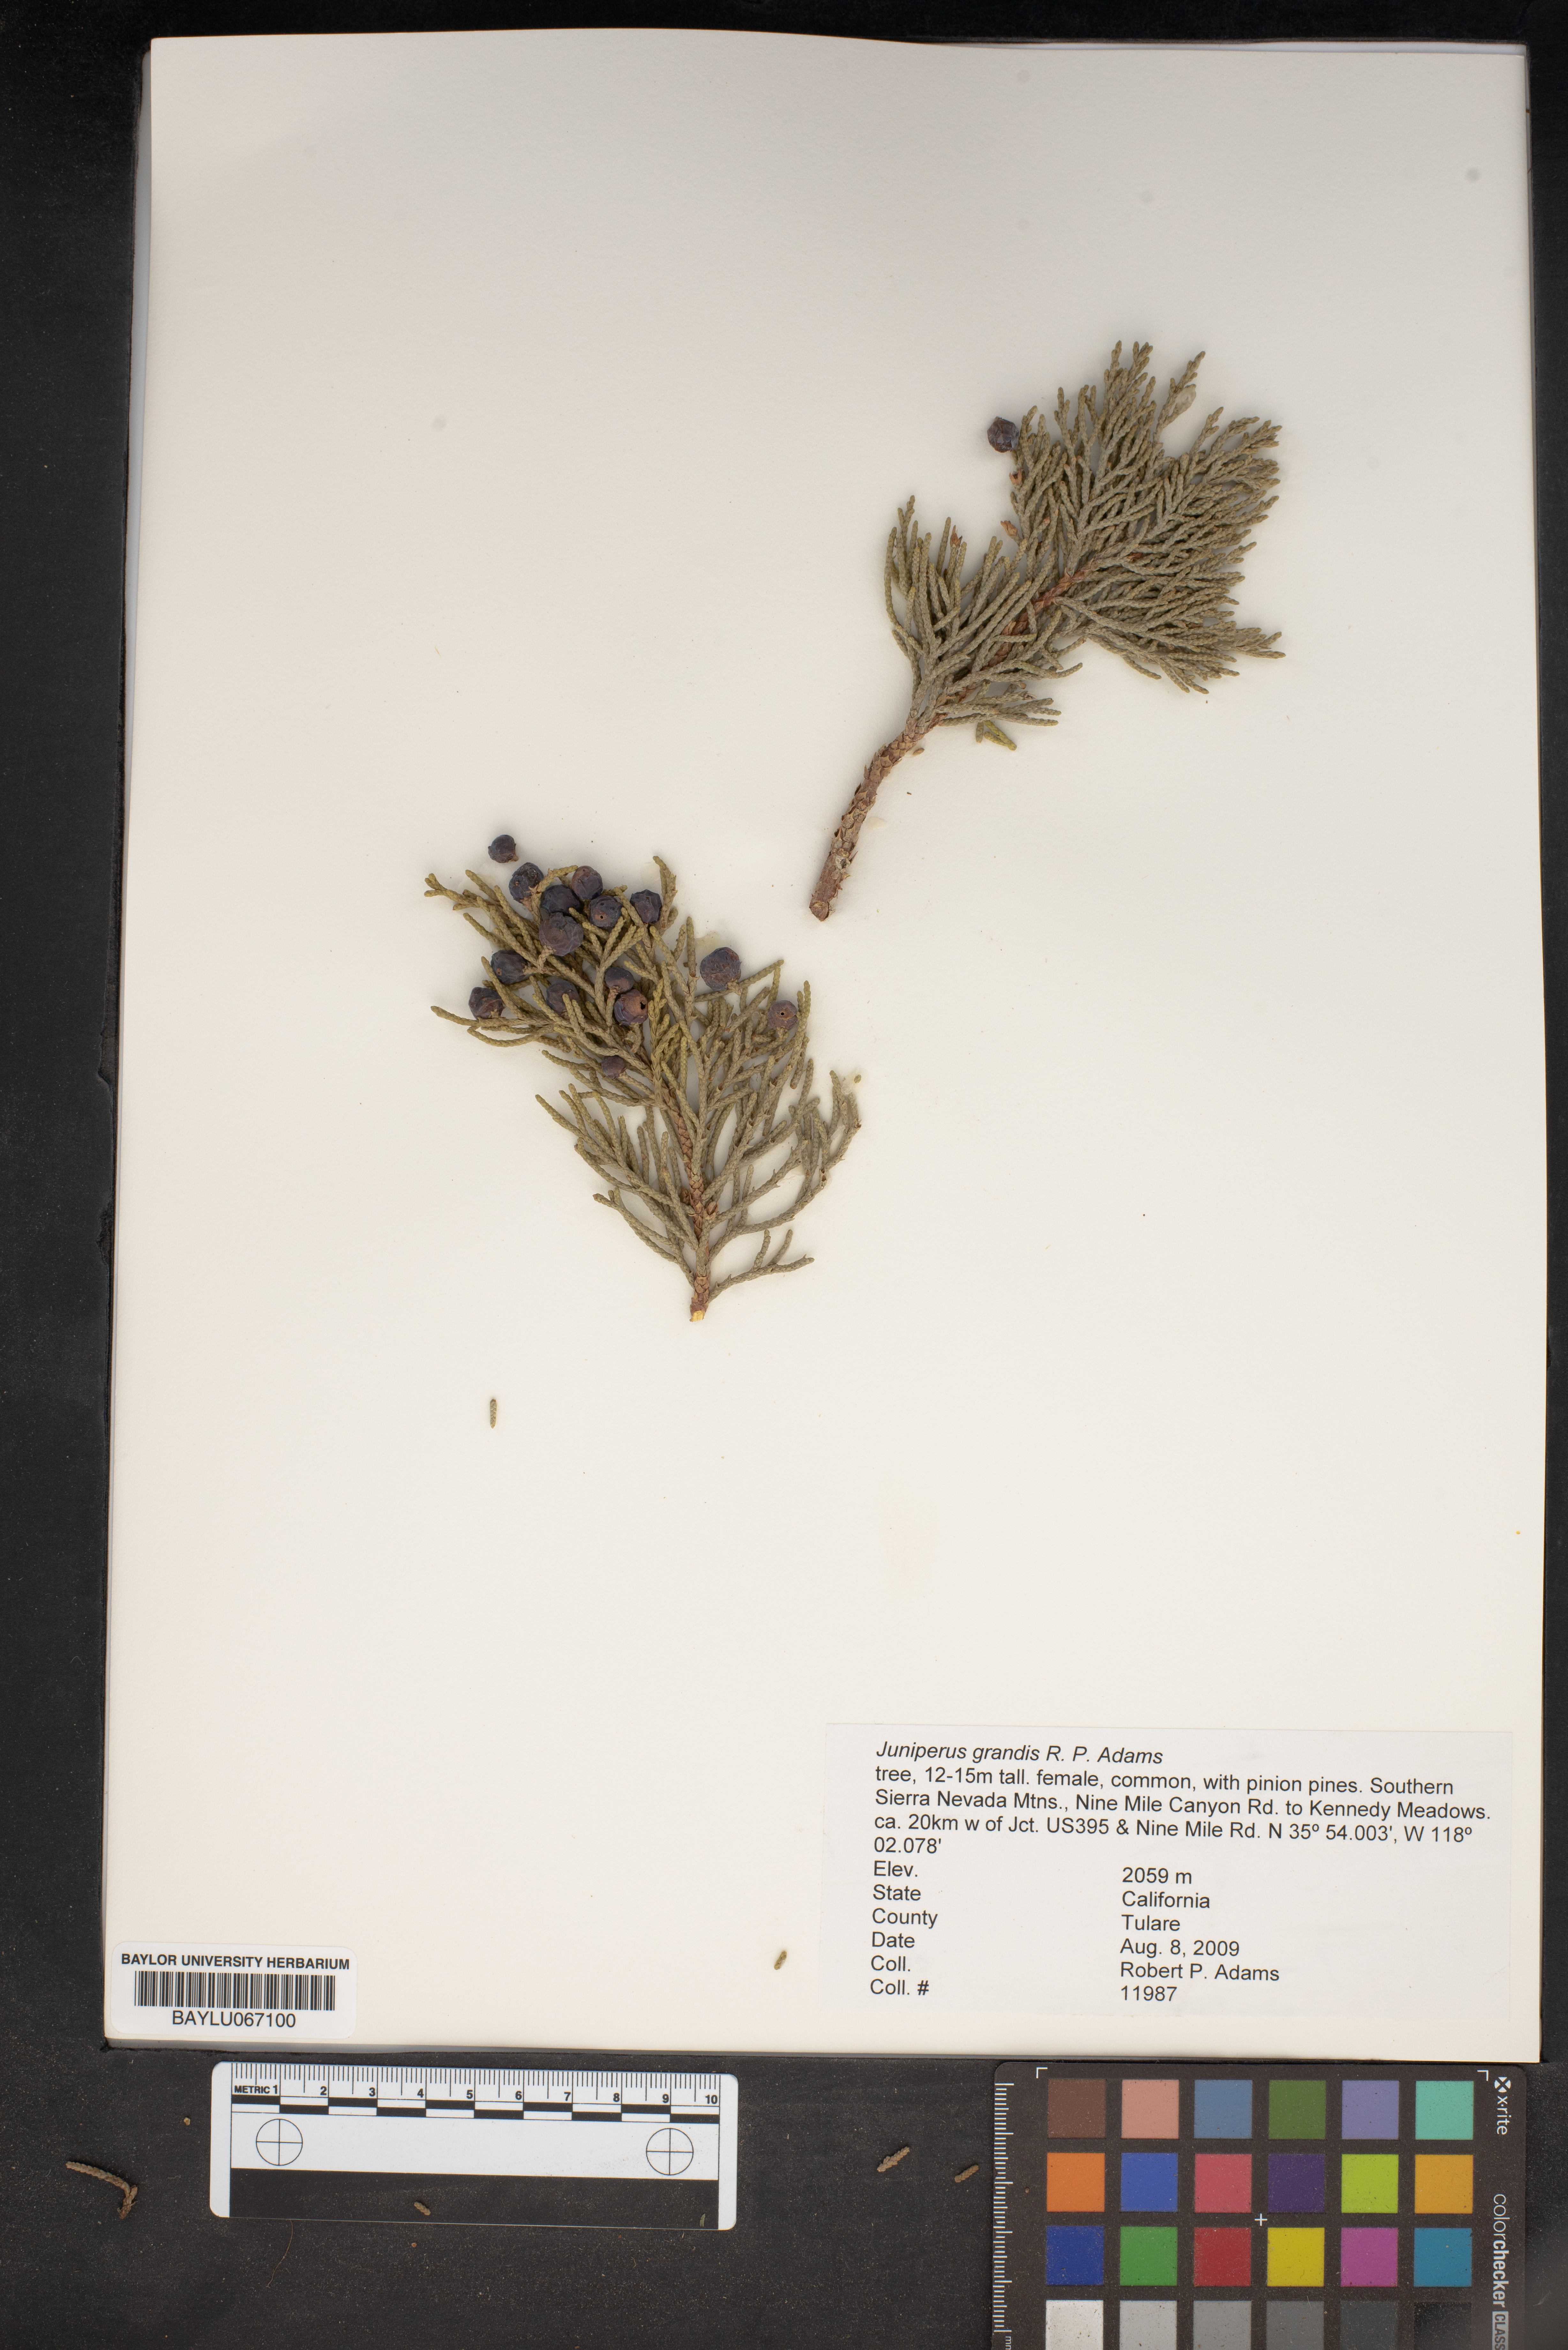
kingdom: Plantae
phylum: Tracheophyta
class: Pinopsida
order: Pinales
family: Cupressaceae
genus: Juniperus
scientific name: Juniperus occidentalis
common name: Western juniper
